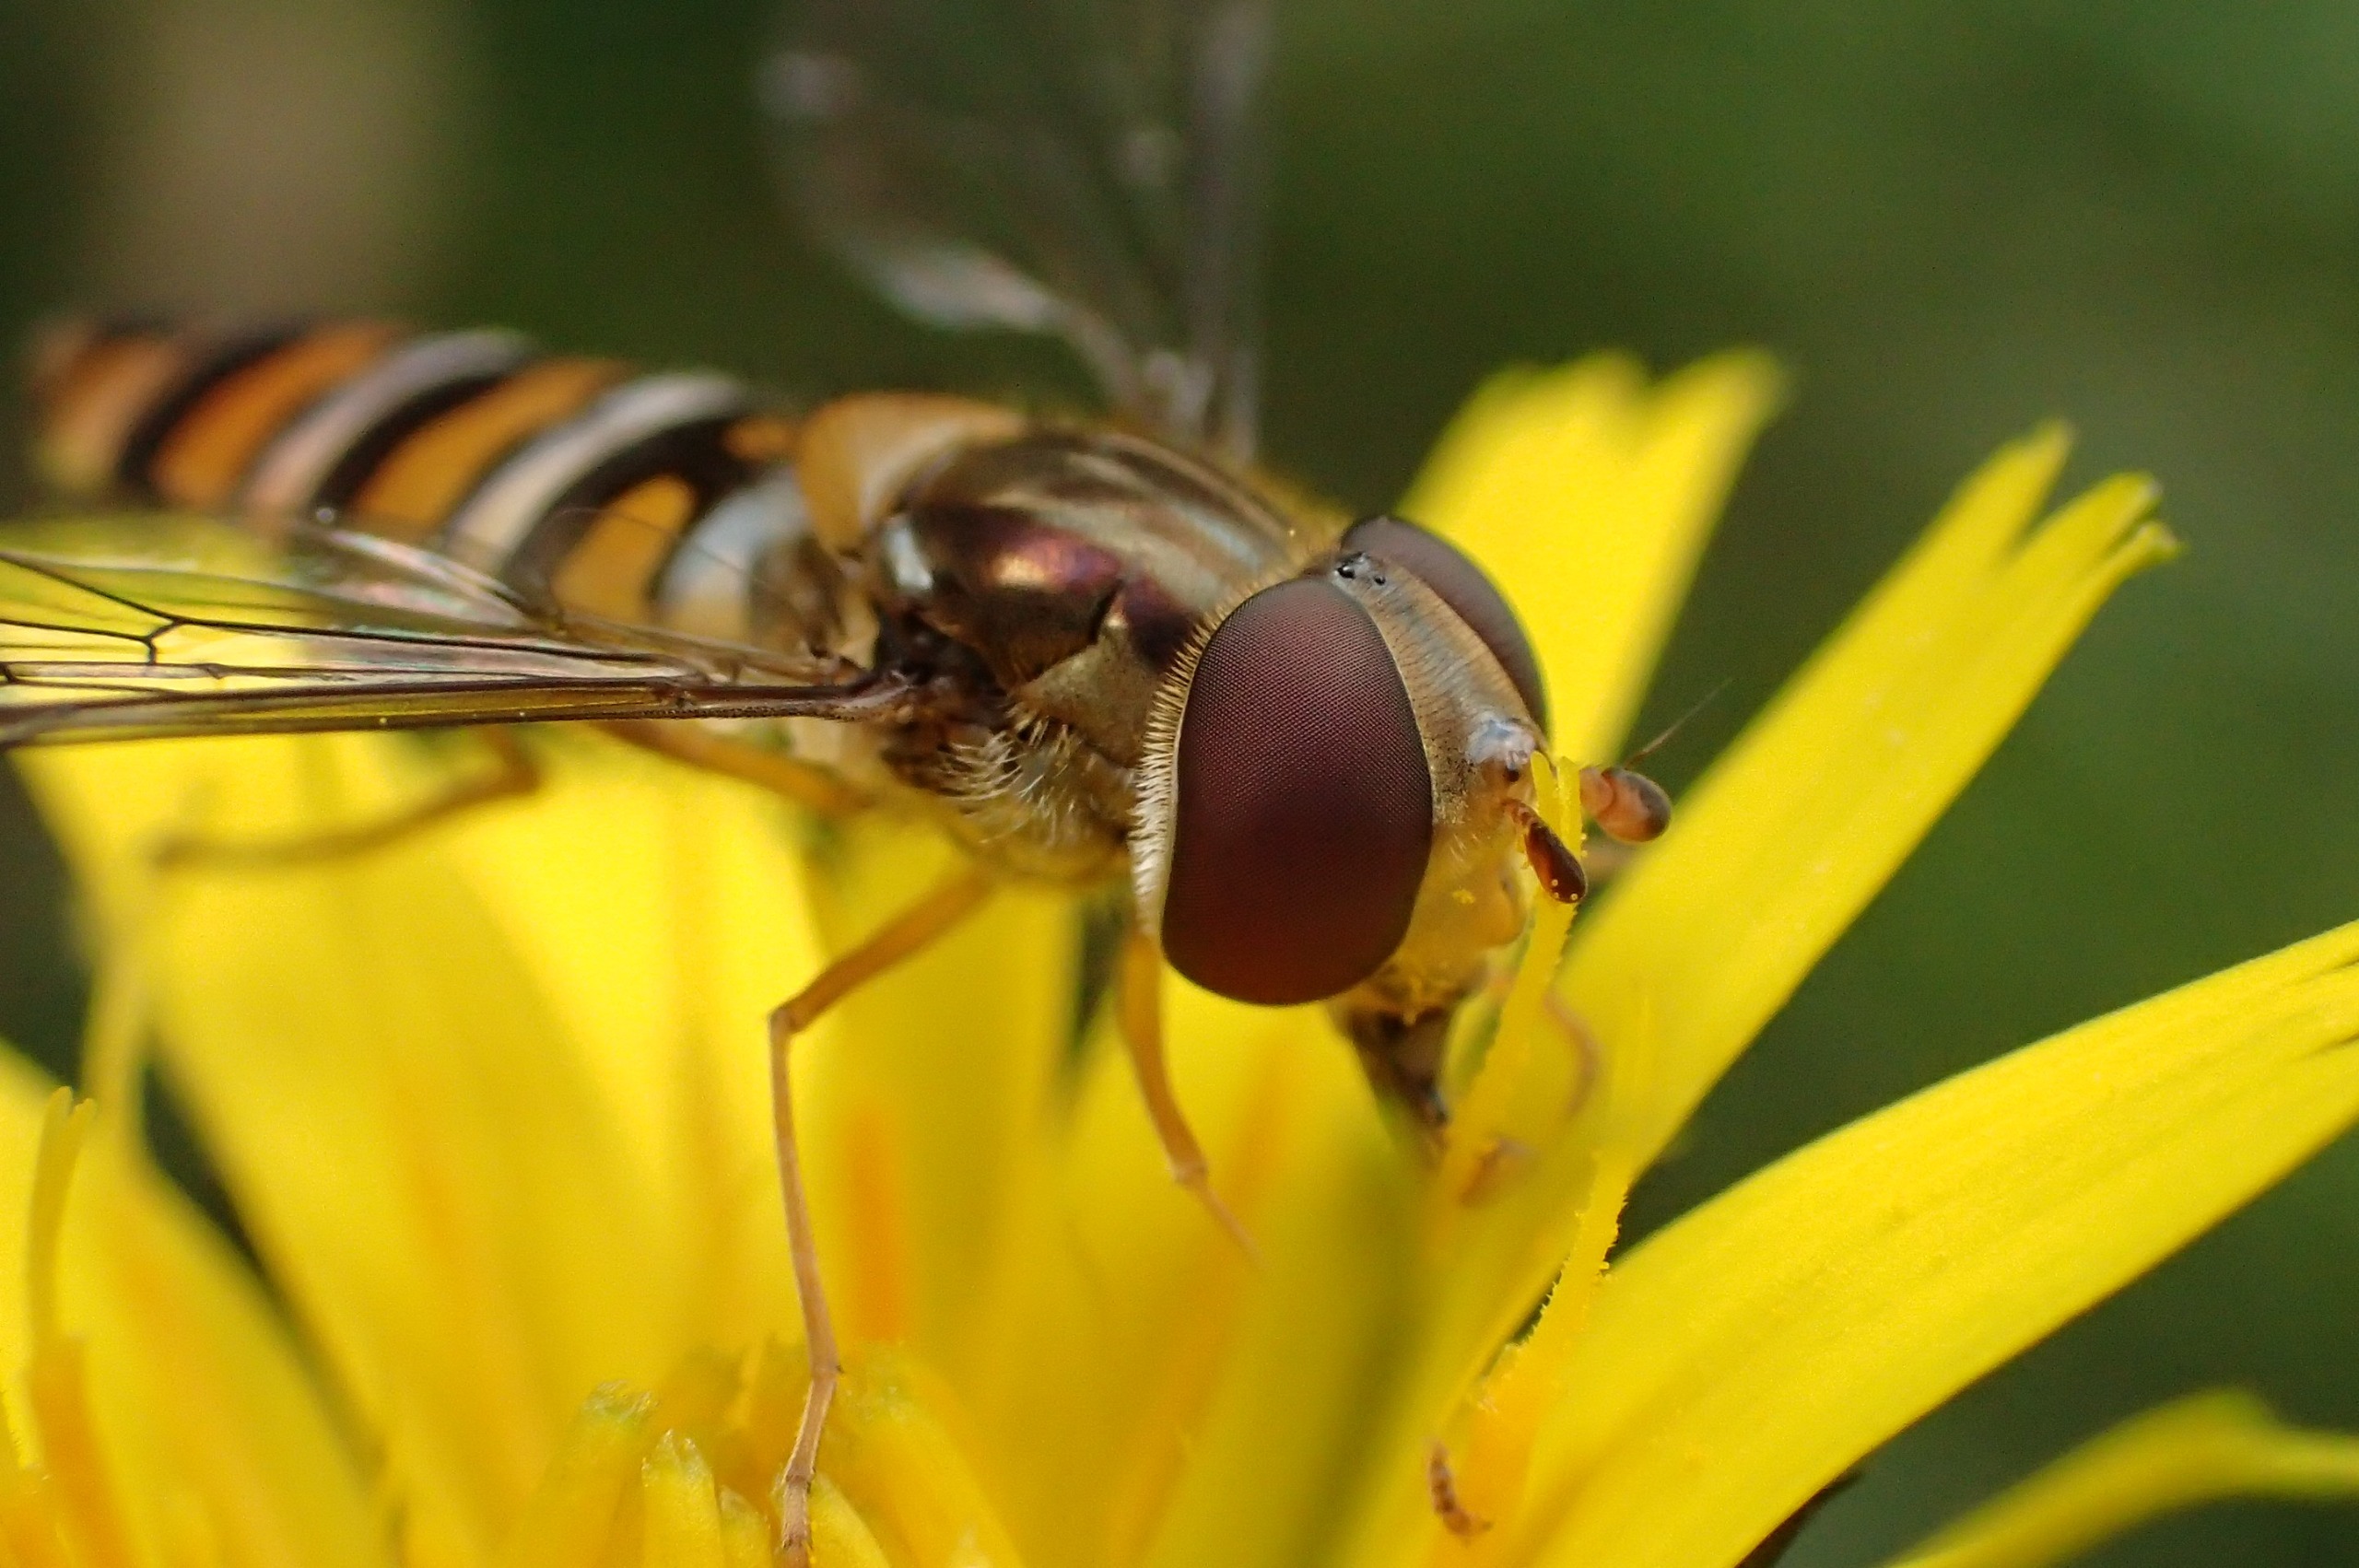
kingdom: Animalia
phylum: Arthropoda
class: Insecta
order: Diptera
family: Syrphidae
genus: Episyrphus
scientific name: Episyrphus balteatus
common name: Dobbeltbåndet svirreflue
